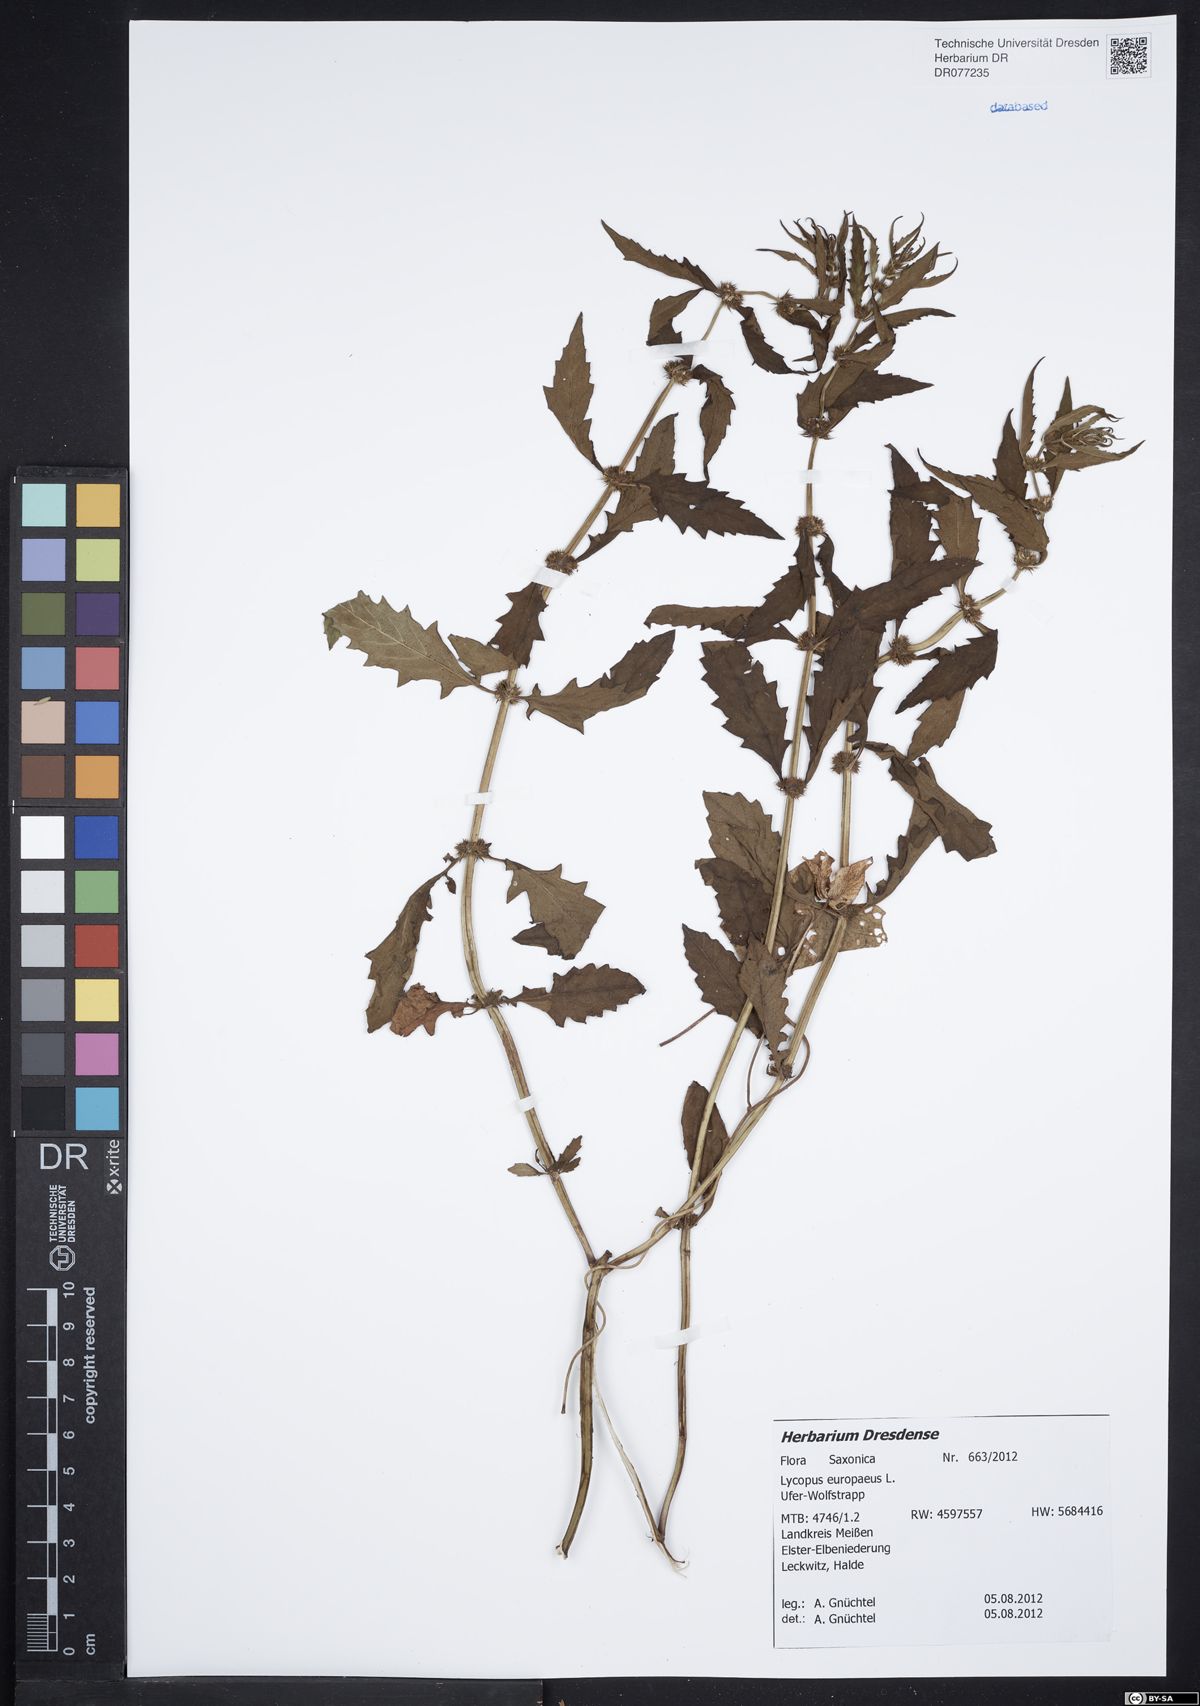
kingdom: Plantae
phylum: Tracheophyta
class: Magnoliopsida
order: Lamiales
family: Lamiaceae
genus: Lycopus
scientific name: Lycopus europaeus
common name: European bugleweed
